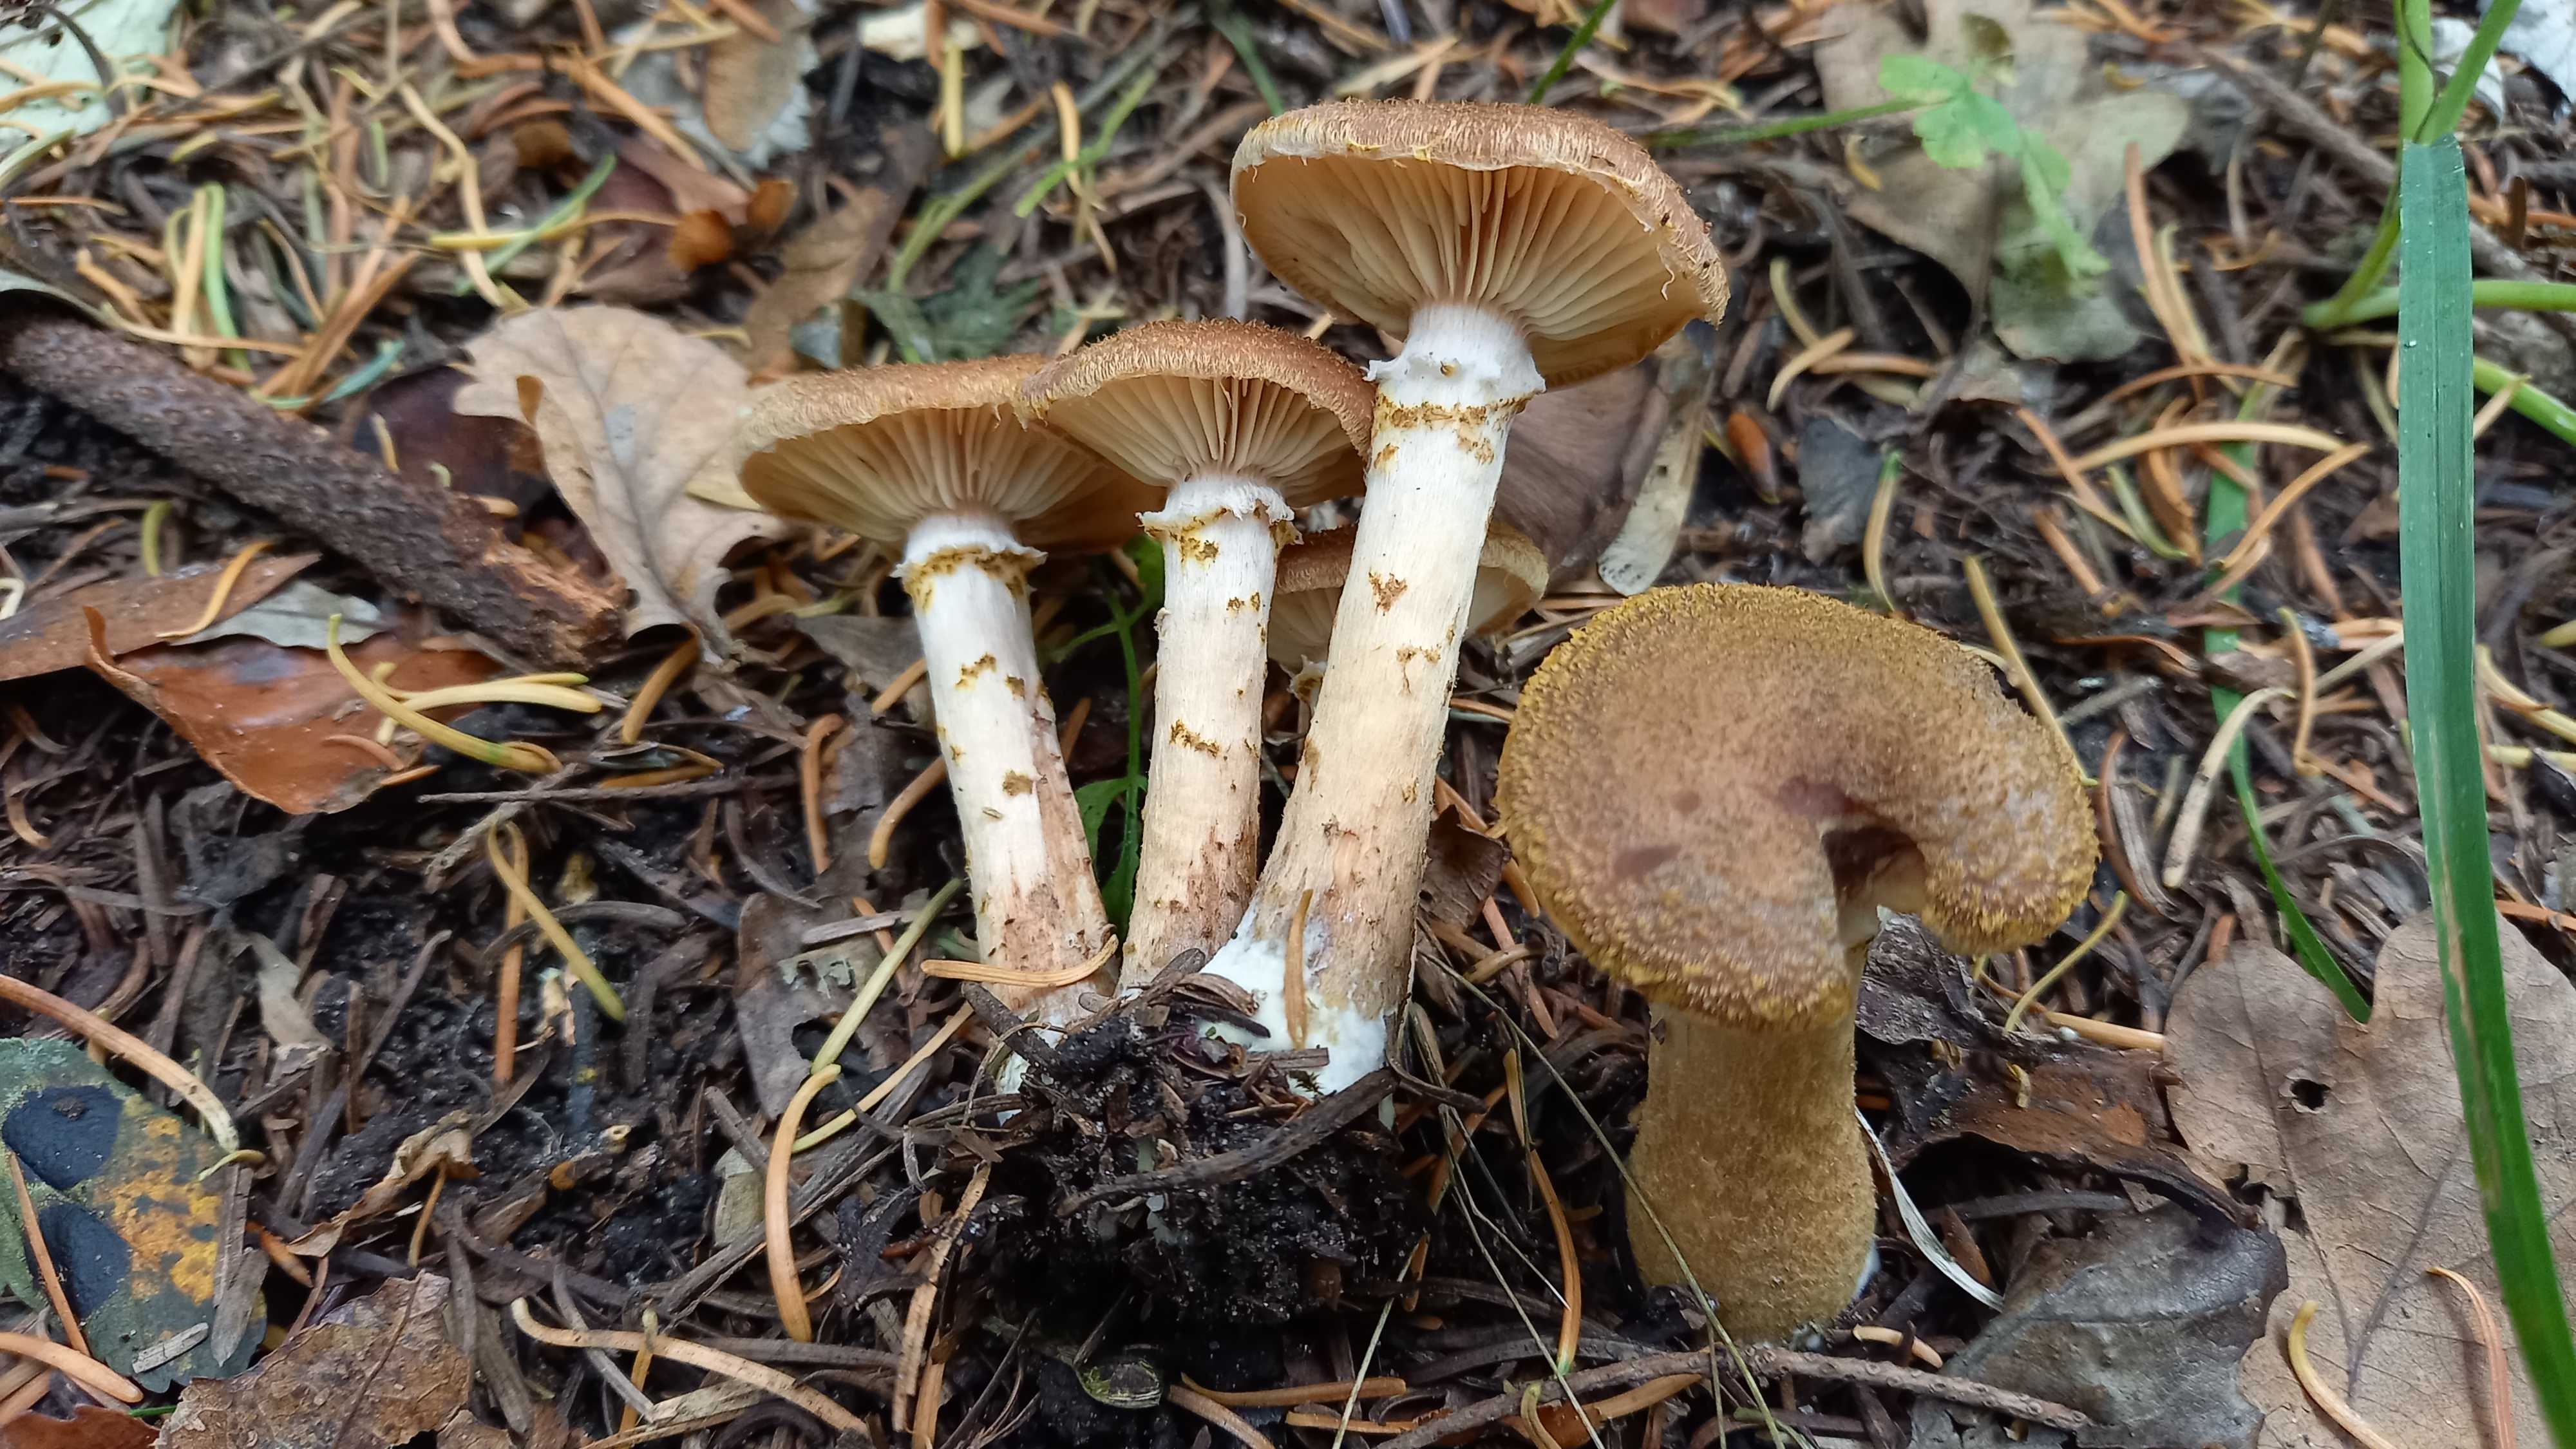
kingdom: Fungi
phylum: Basidiomycota
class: Agaricomycetes
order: Agaricales
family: Physalacriaceae
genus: Armillaria
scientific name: Armillaria ostoyae
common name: mørk honningsvamp
